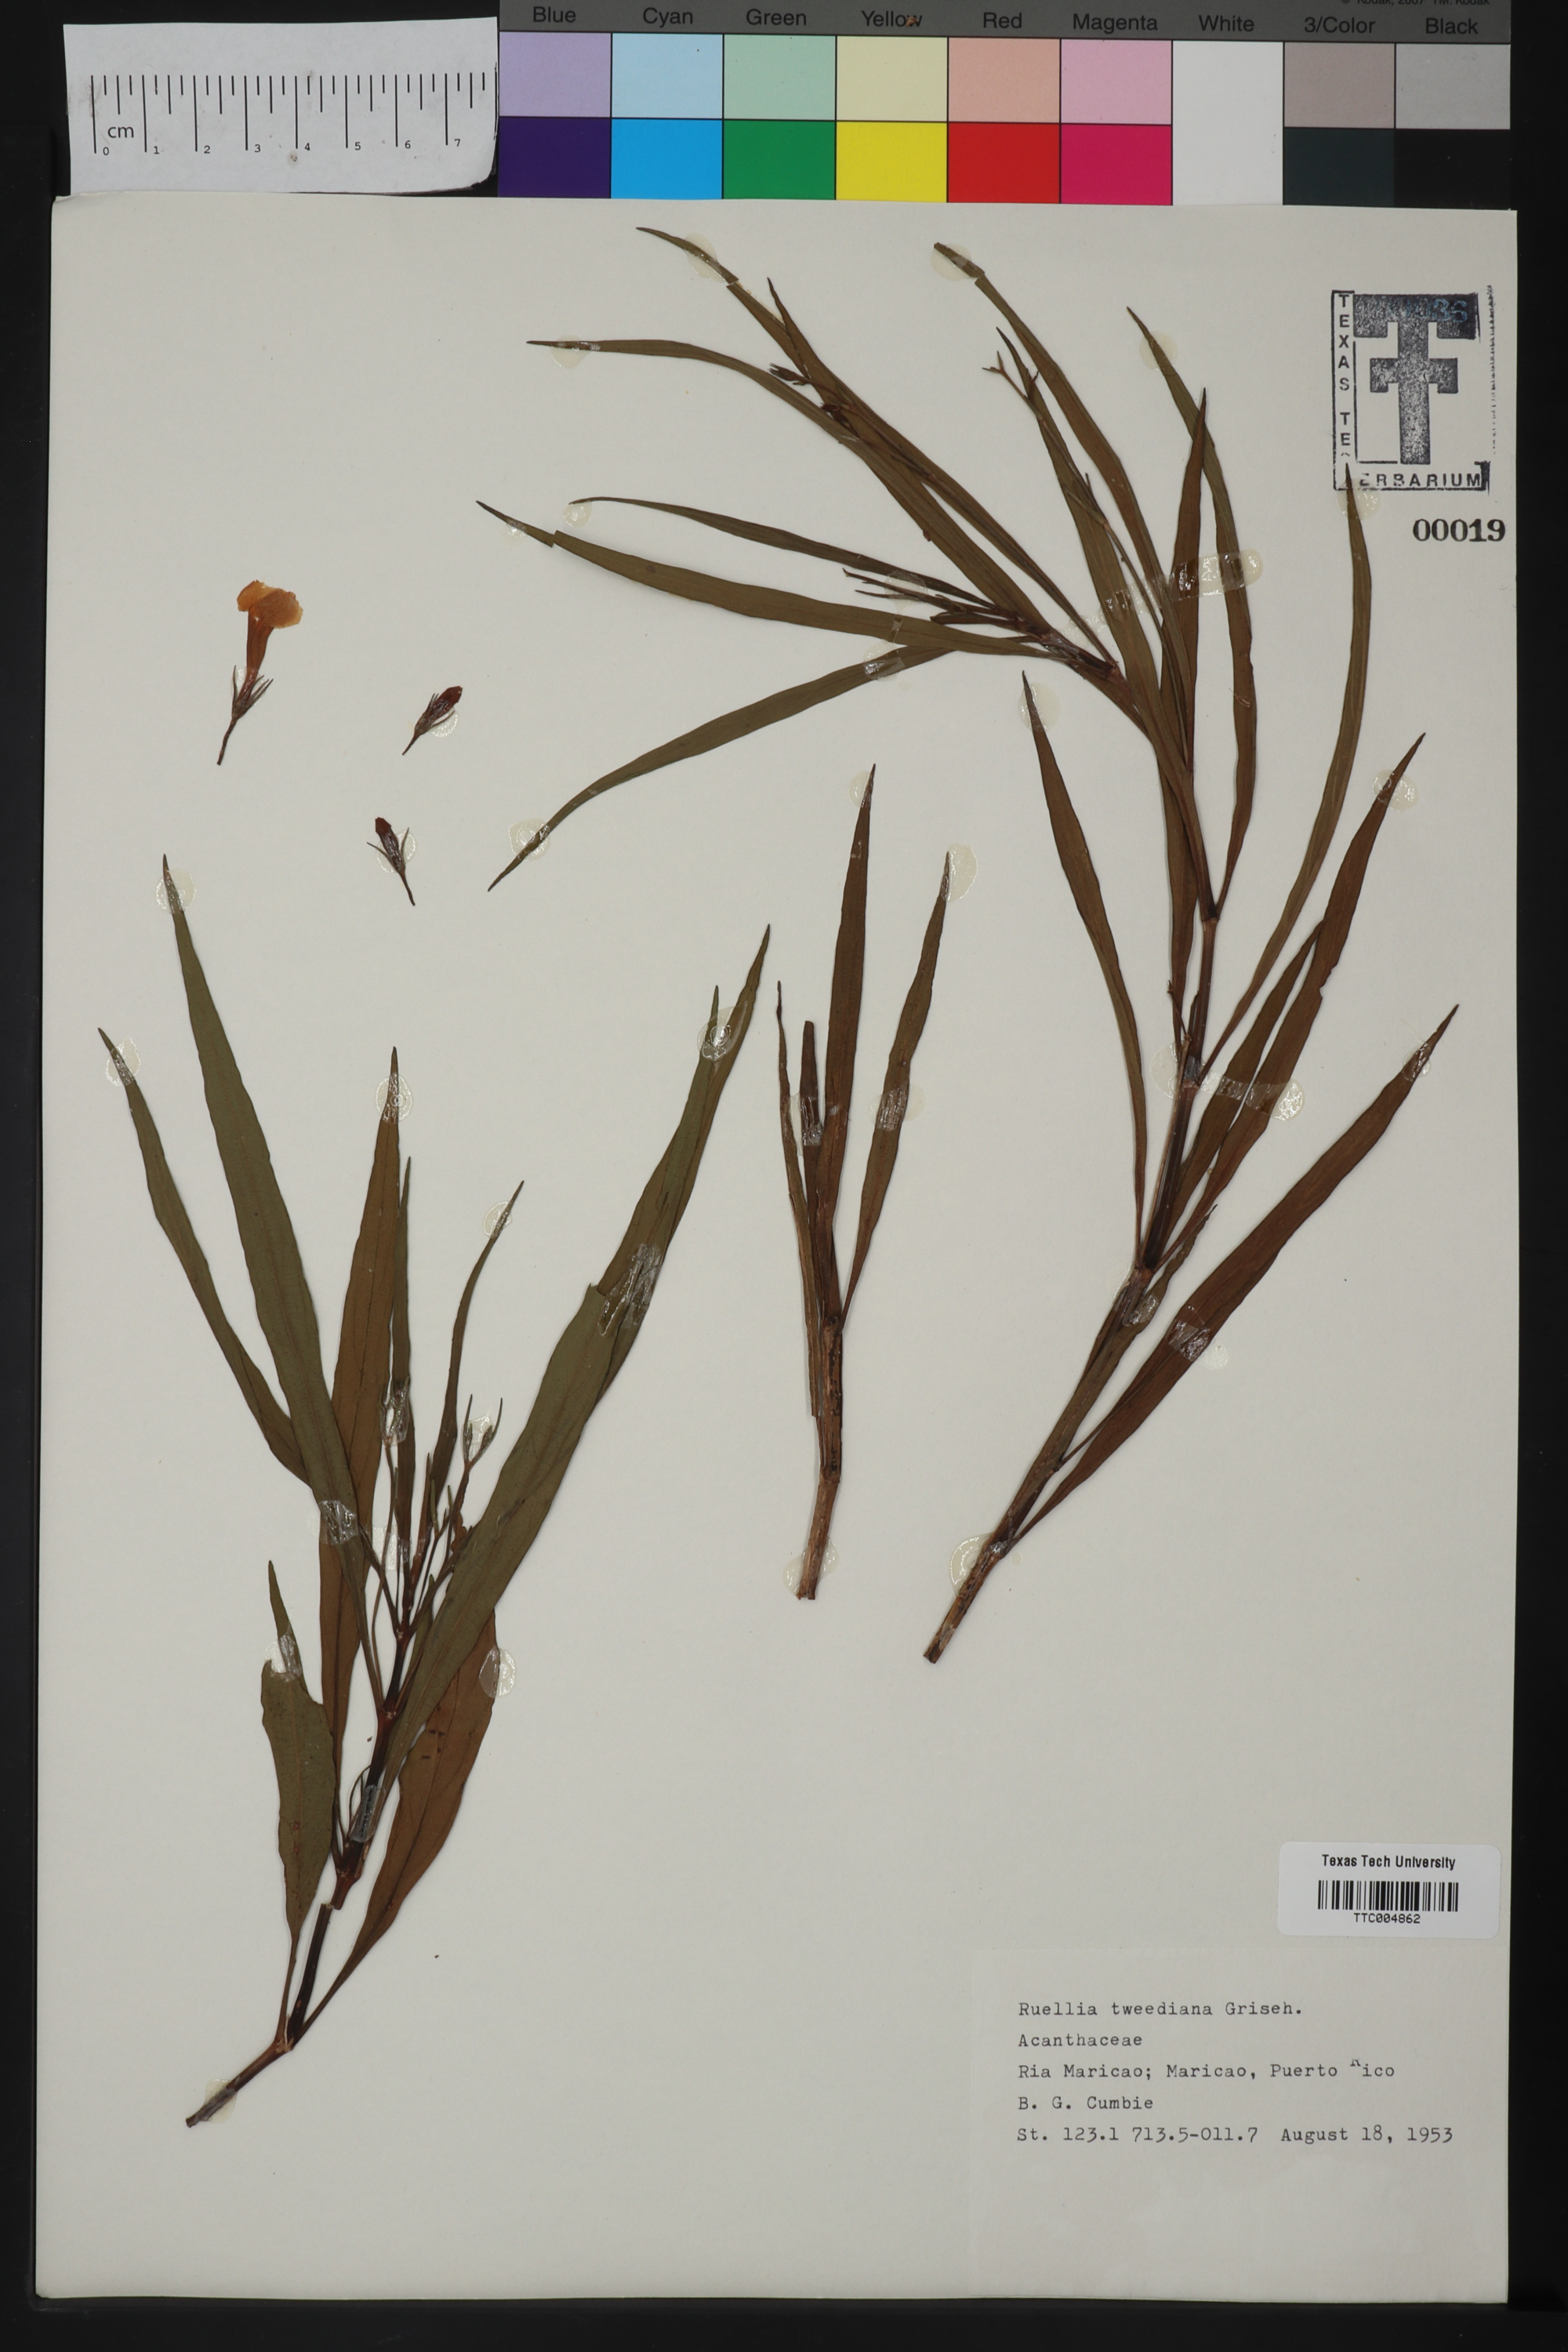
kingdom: Plantae
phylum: Tracheophyta
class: Magnoliopsida
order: Lamiales
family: Acanthaceae
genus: Ruellia
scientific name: Ruellia simplex
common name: Softseed wild petunia
